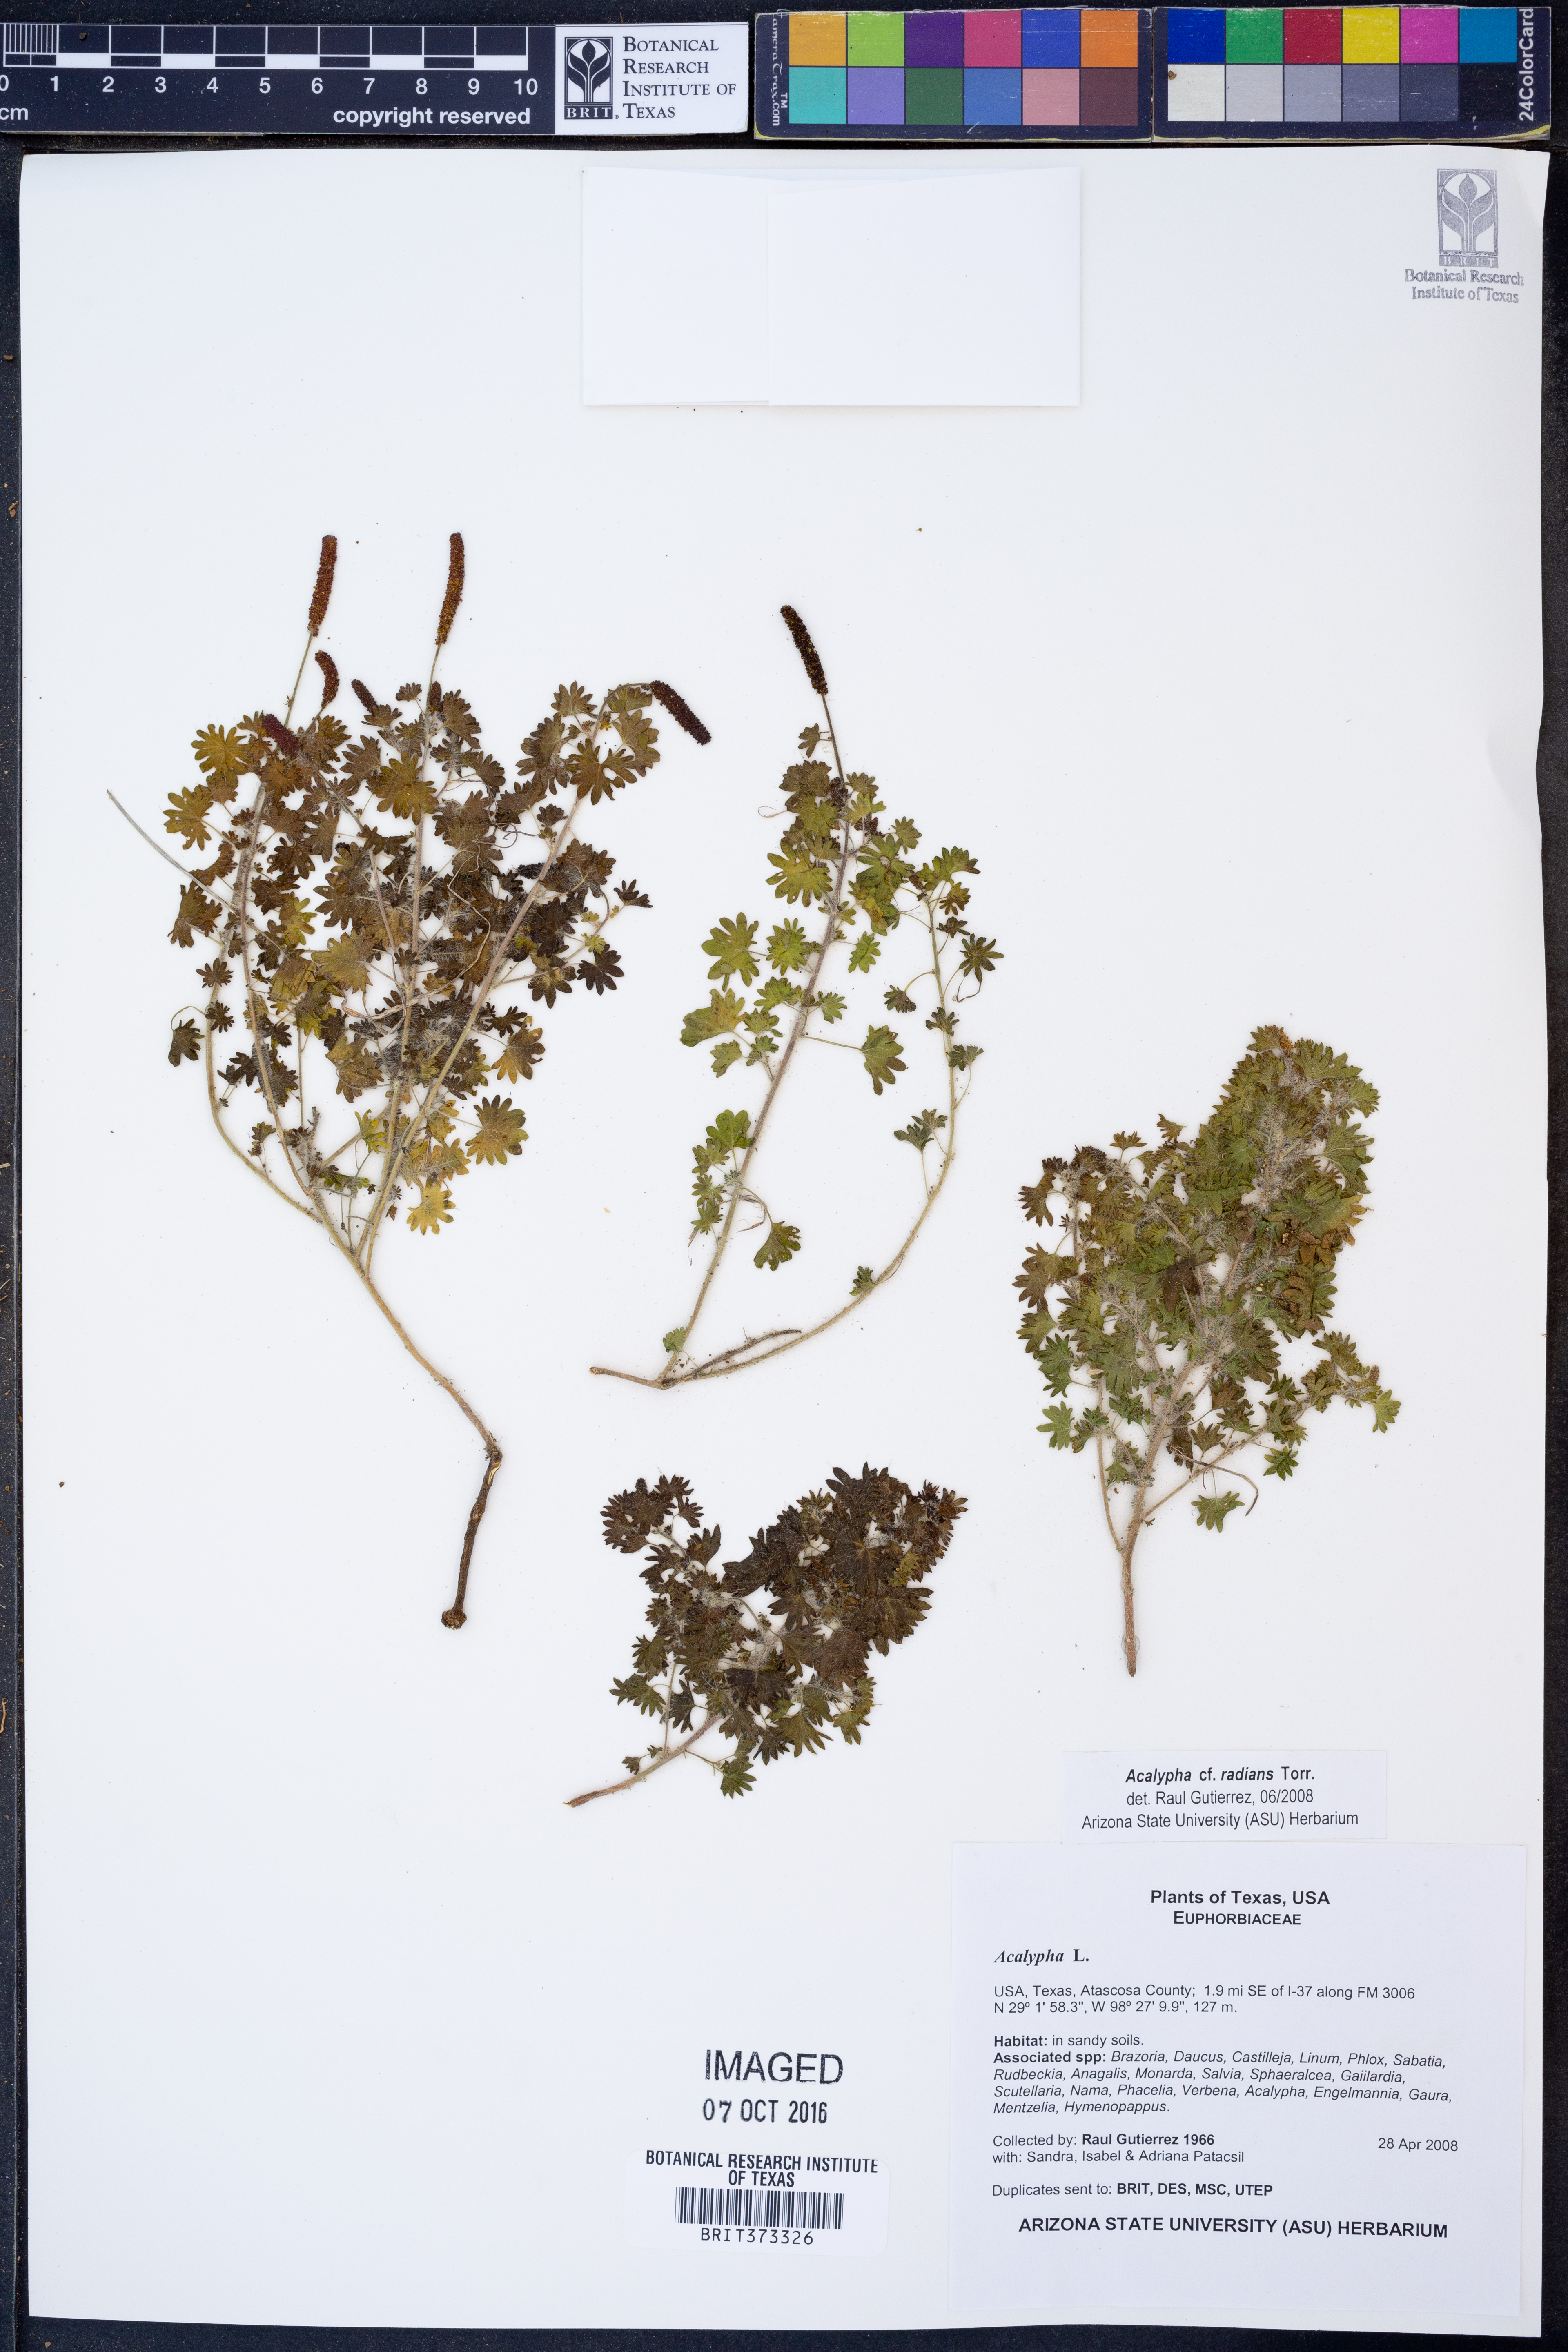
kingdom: Plantae
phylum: Tracheophyta
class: Magnoliopsida
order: Malpighiales
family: Euphorbiaceae
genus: Acalypha
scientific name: Acalypha radians
